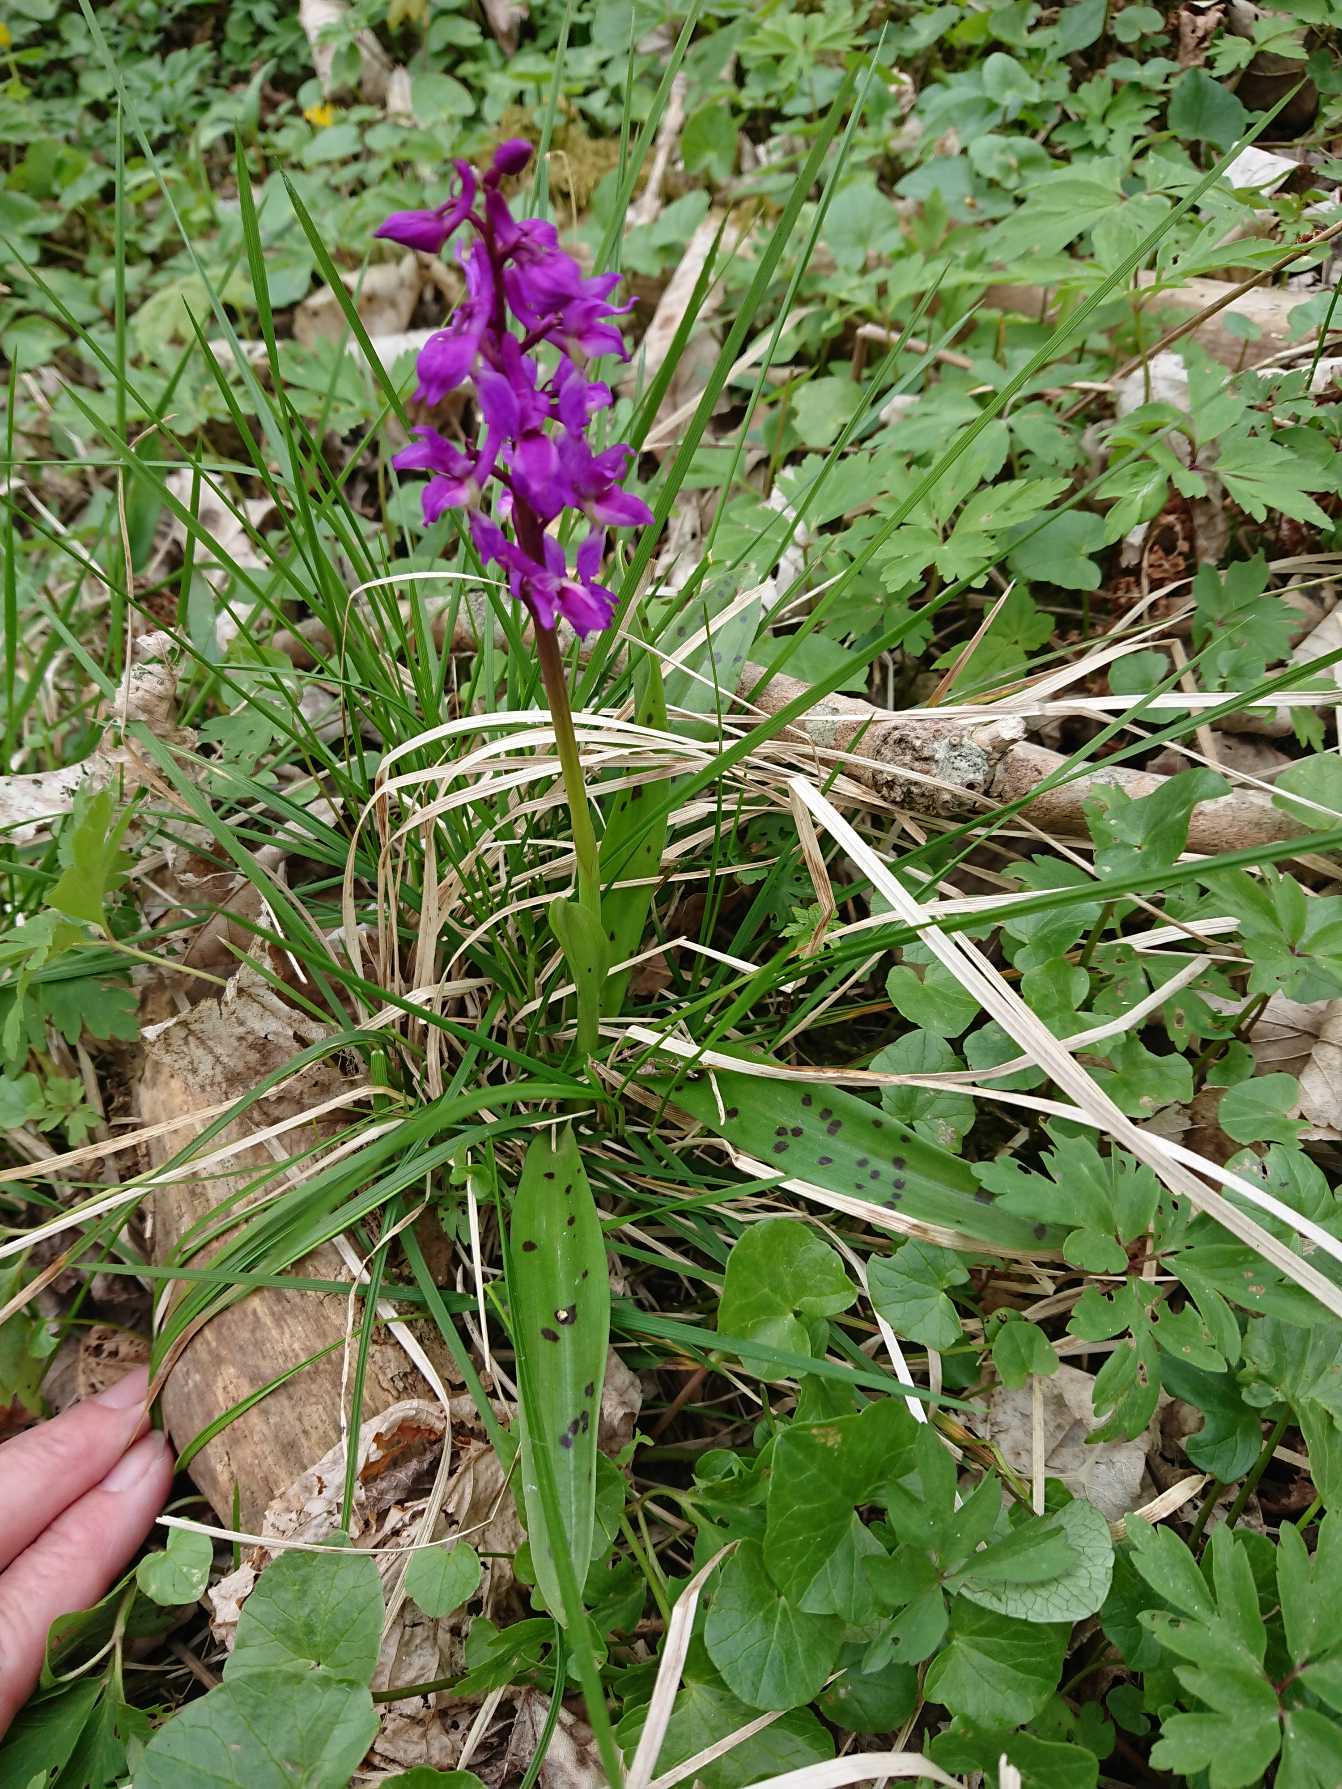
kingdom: Plantae
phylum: Tracheophyta
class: Liliopsida
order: Asparagales
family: Orchidaceae
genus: Orchis
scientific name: Orchis mascula
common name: Tyndakset gøgeurt
